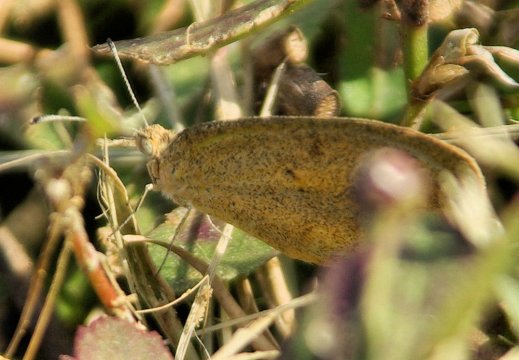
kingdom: Animalia
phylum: Arthropoda
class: Insecta
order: Lepidoptera
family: Pieridae
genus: Eurema
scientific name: Eurema daira
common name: Barred Yellow
